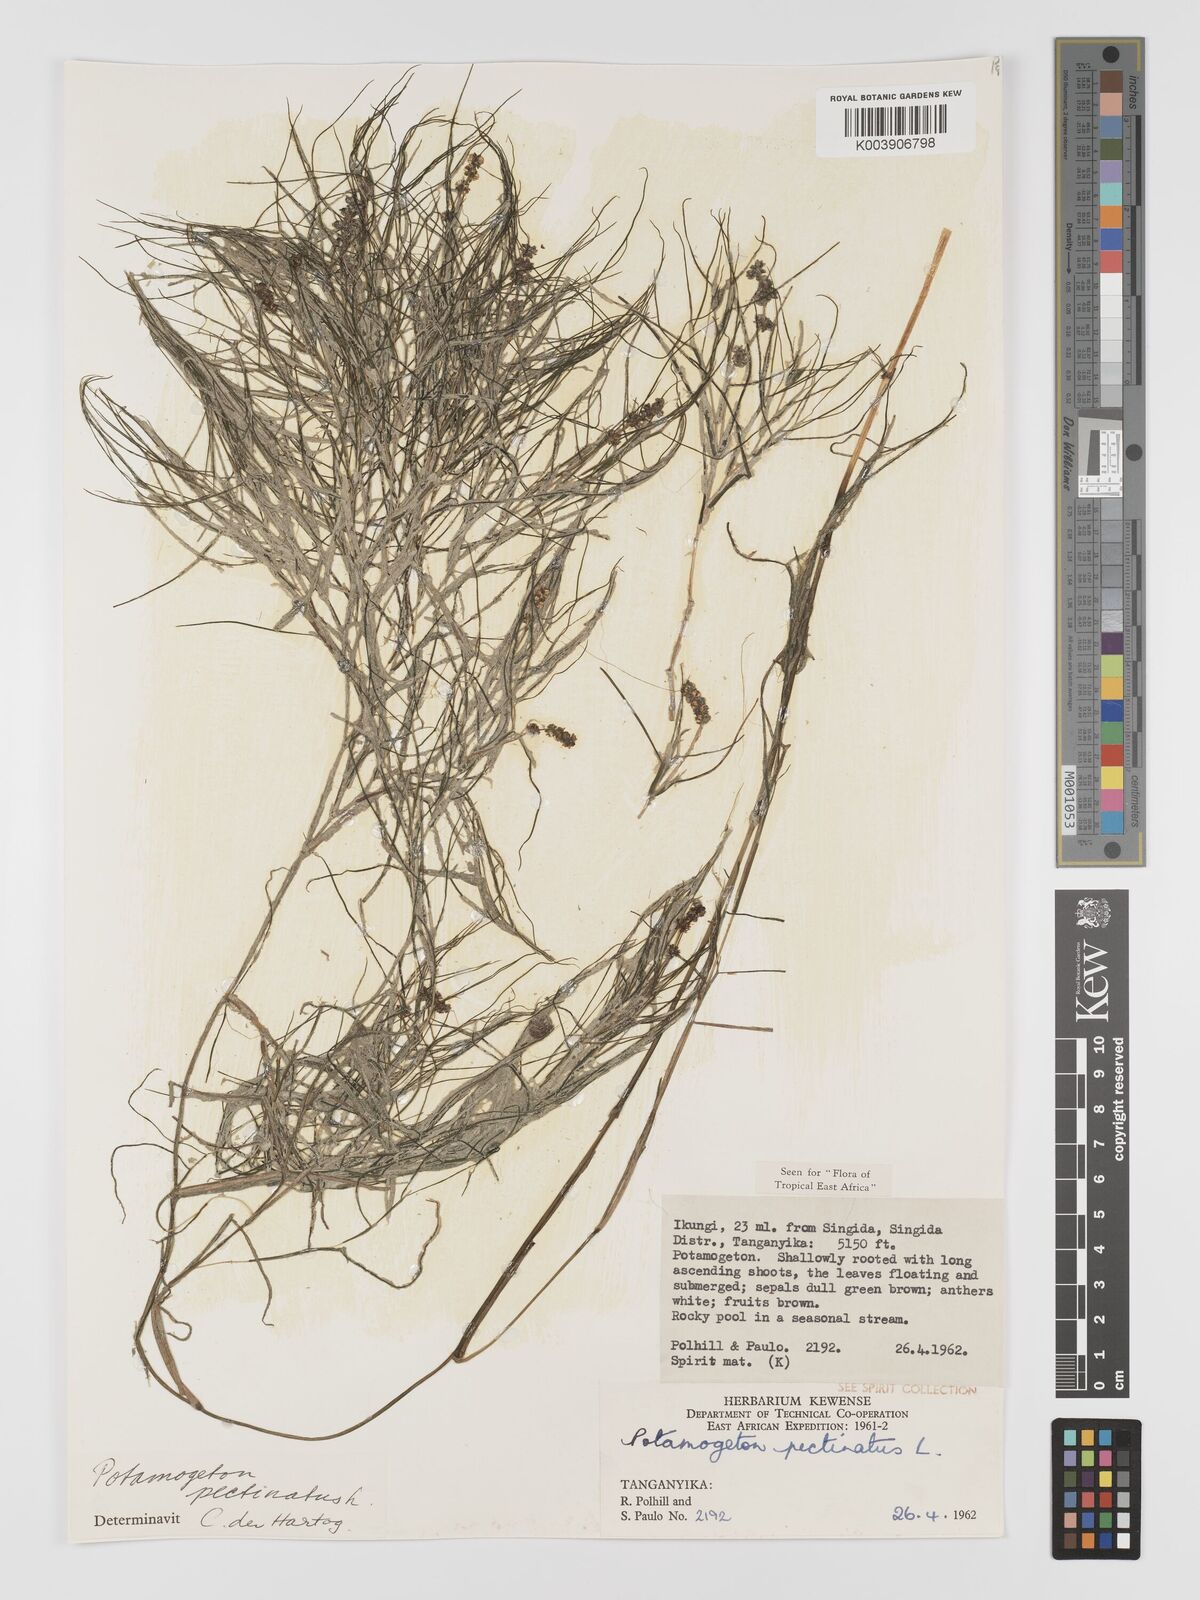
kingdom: Plantae
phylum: Tracheophyta
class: Liliopsida
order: Alismatales
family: Potamogetonaceae
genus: Stuckenia
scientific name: Stuckenia pectinata
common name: Sago pondweed
